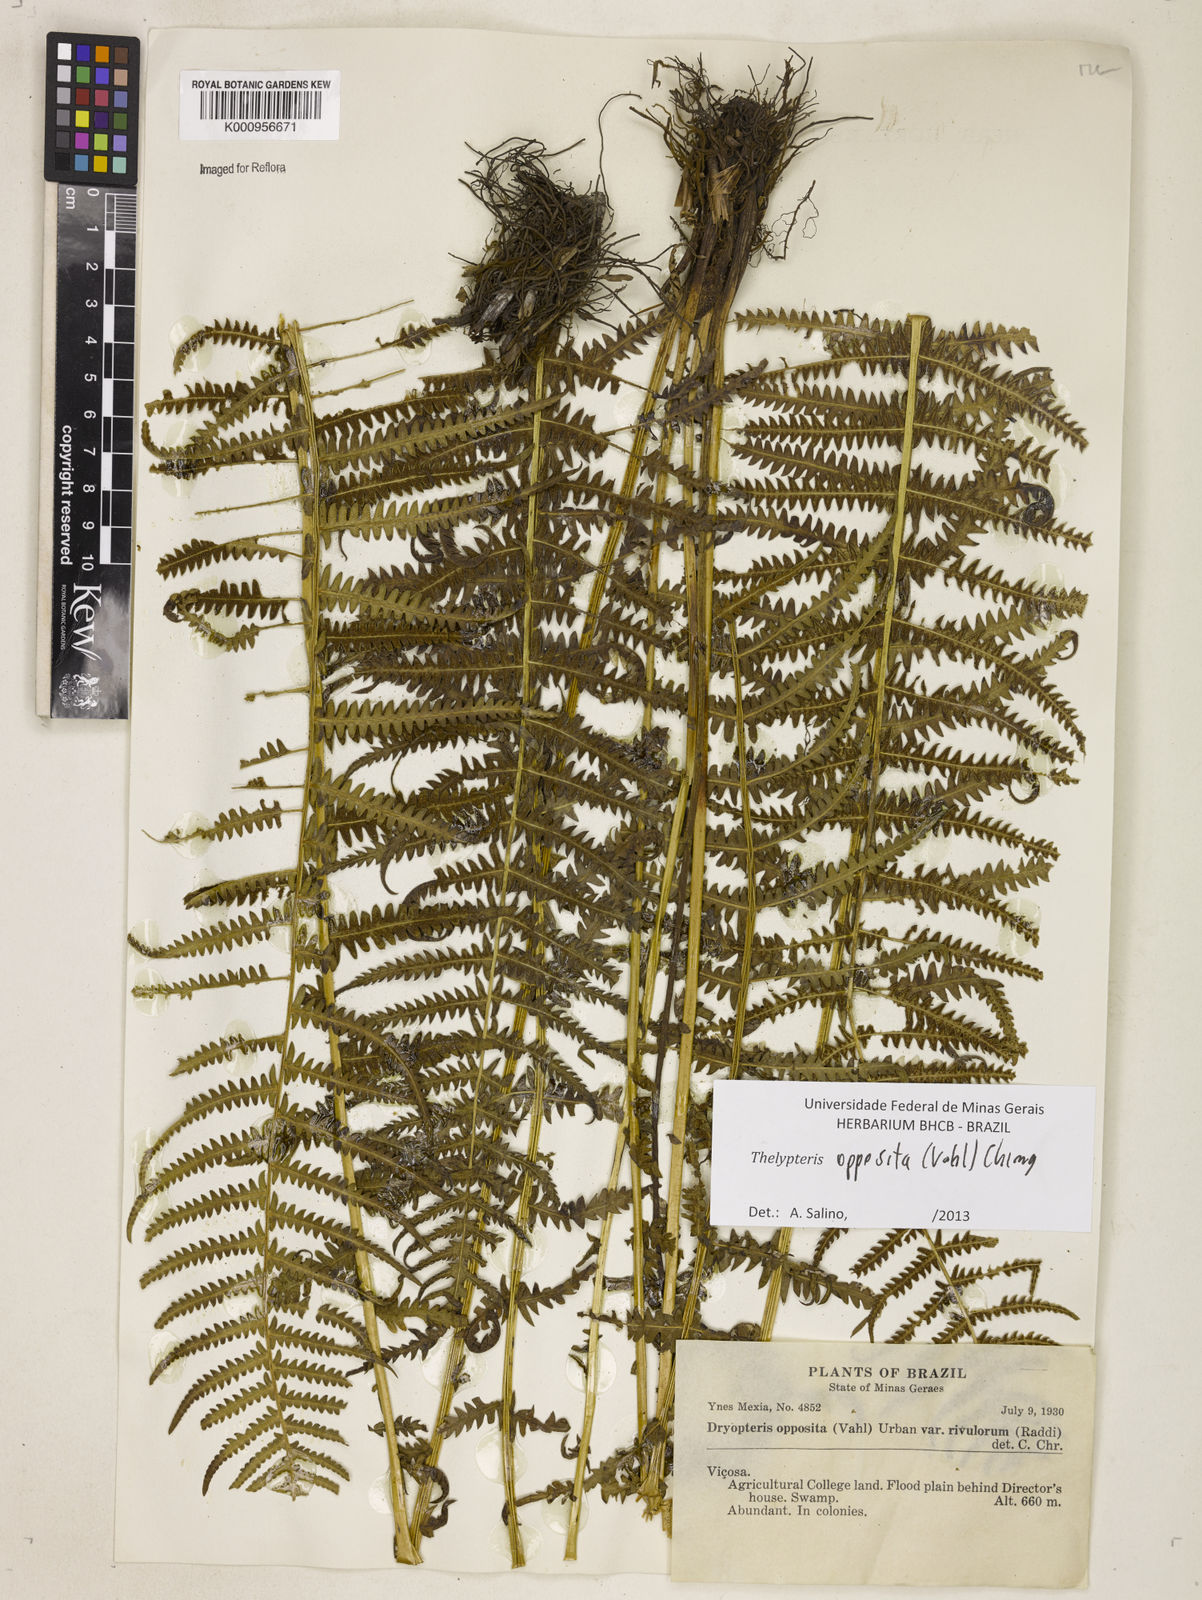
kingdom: Plantae
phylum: Tracheophyta
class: Polypodiopsida
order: Polypodiales
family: Thelypteridaceae
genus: Amauropelta
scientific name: Amauropelta opposita
